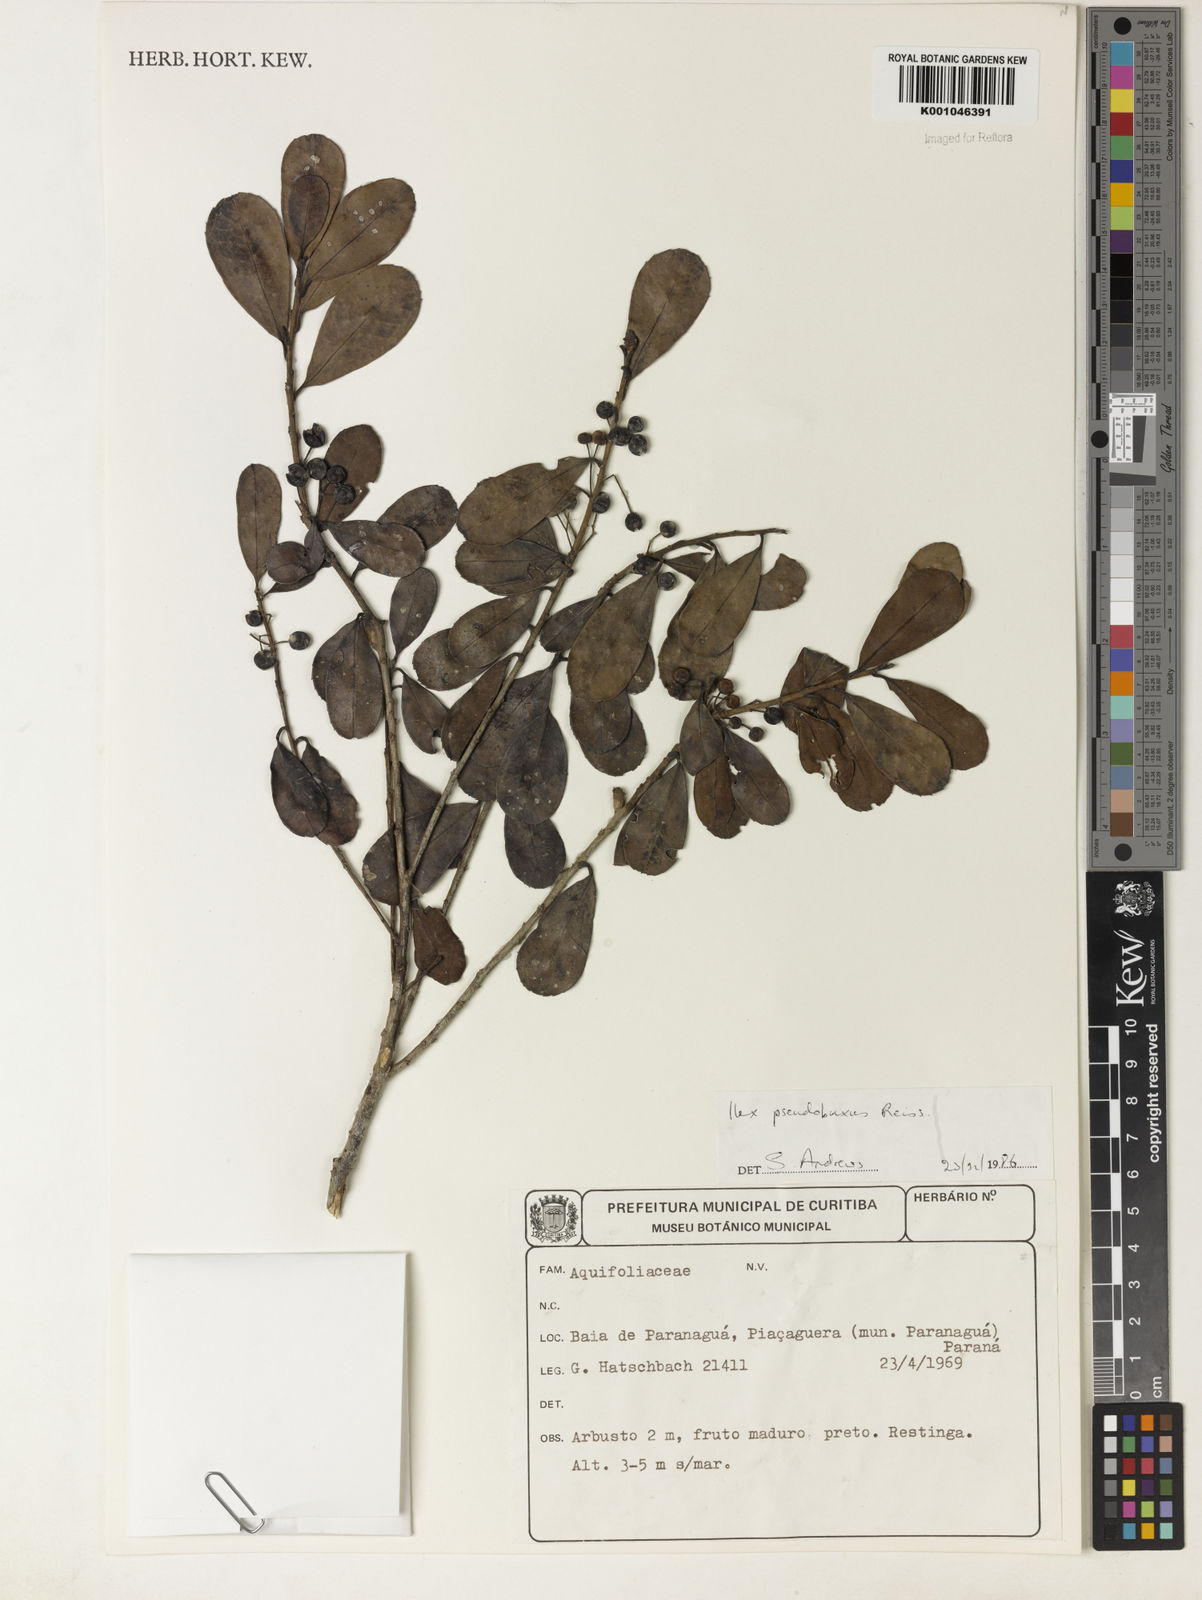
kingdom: Plantae
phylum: Tracheophyta
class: Magnoliopsida
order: Aquifoliales
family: Aquifoliaceae
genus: Ilex
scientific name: Ilex pseudobuxus
